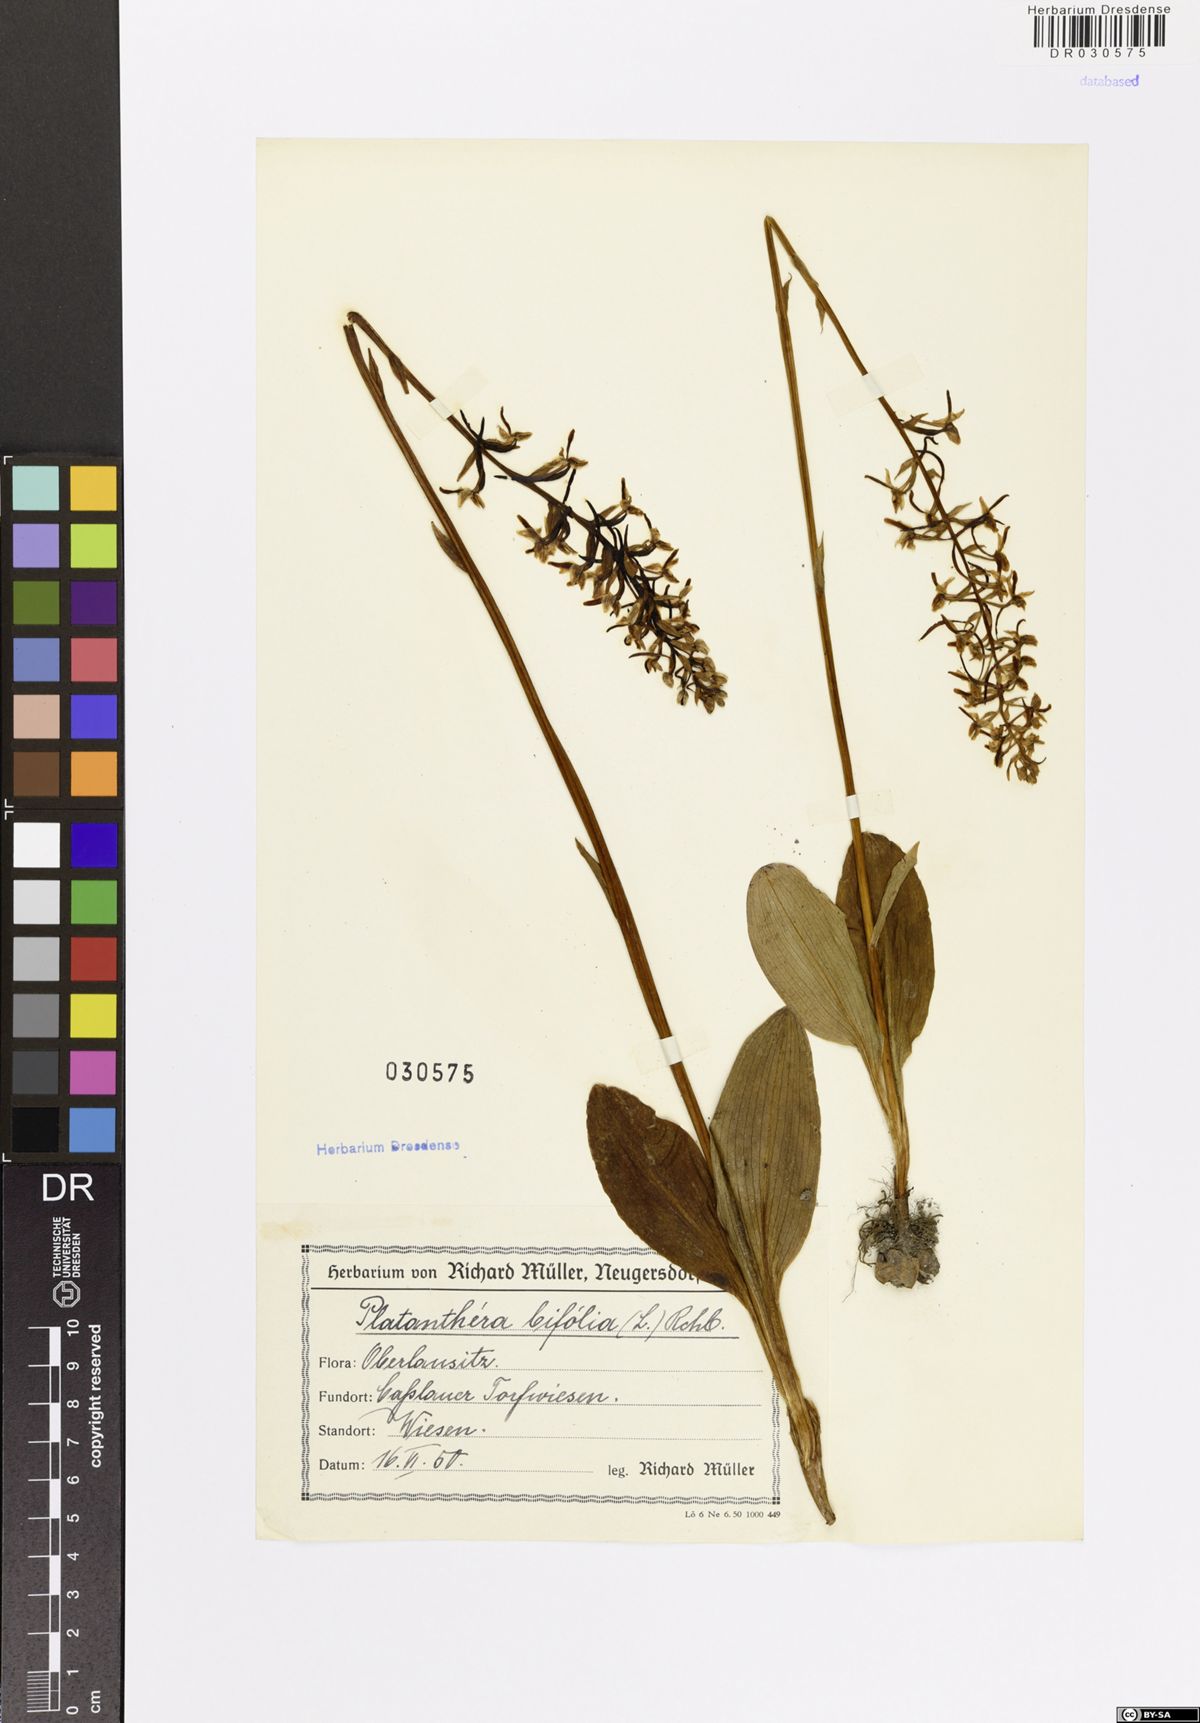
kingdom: Plantae
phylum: Tracheophyta
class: Liliopsida
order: Asparagales
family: Orchidaceae
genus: Platanthera
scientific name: Platanthera bifolia
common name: Lesser butterfly-orchid
